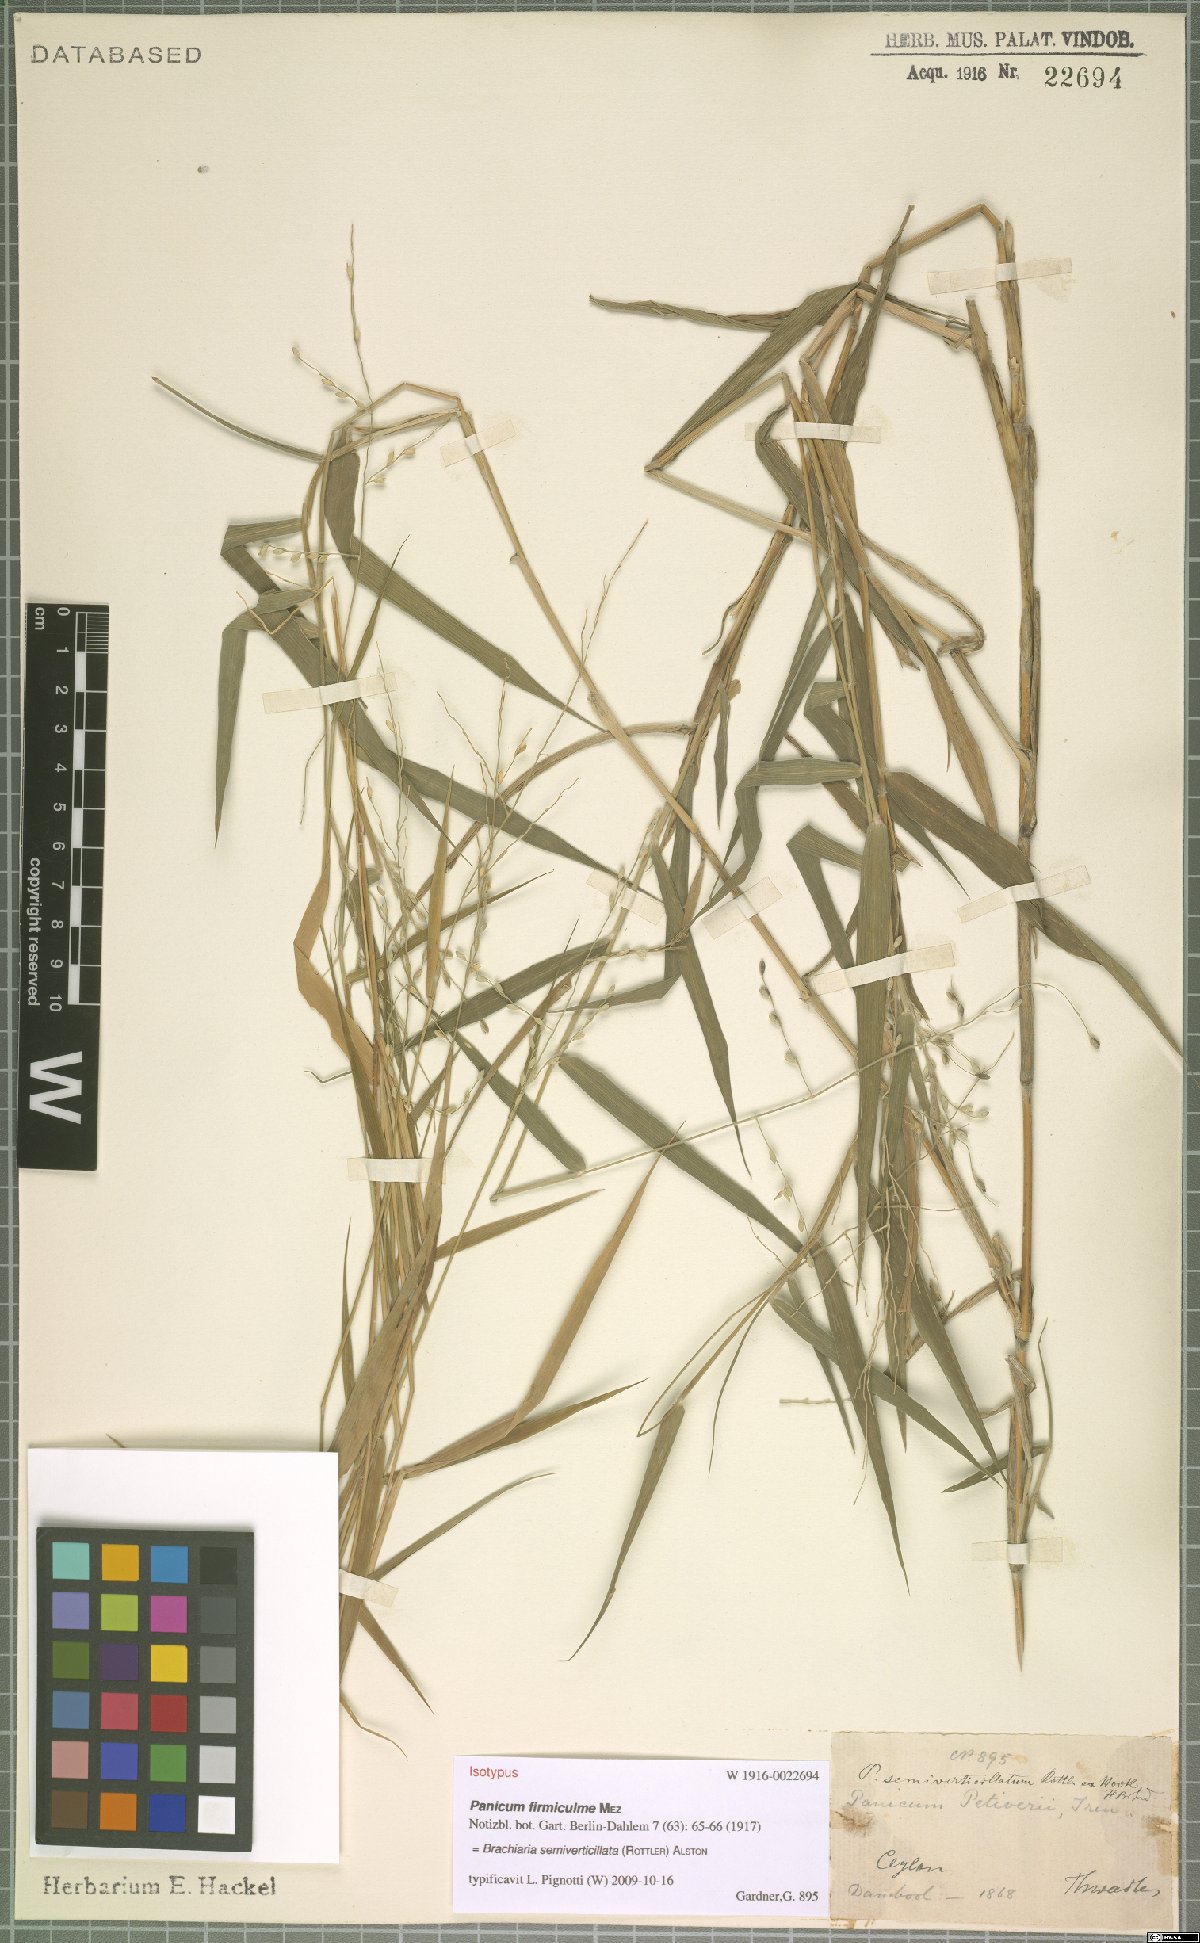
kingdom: Plantae
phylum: Tracheophyta
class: Liliopsida
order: Poales
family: Poaceae
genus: Urochloa
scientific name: Urochloa Brachiaria semiverticillata
